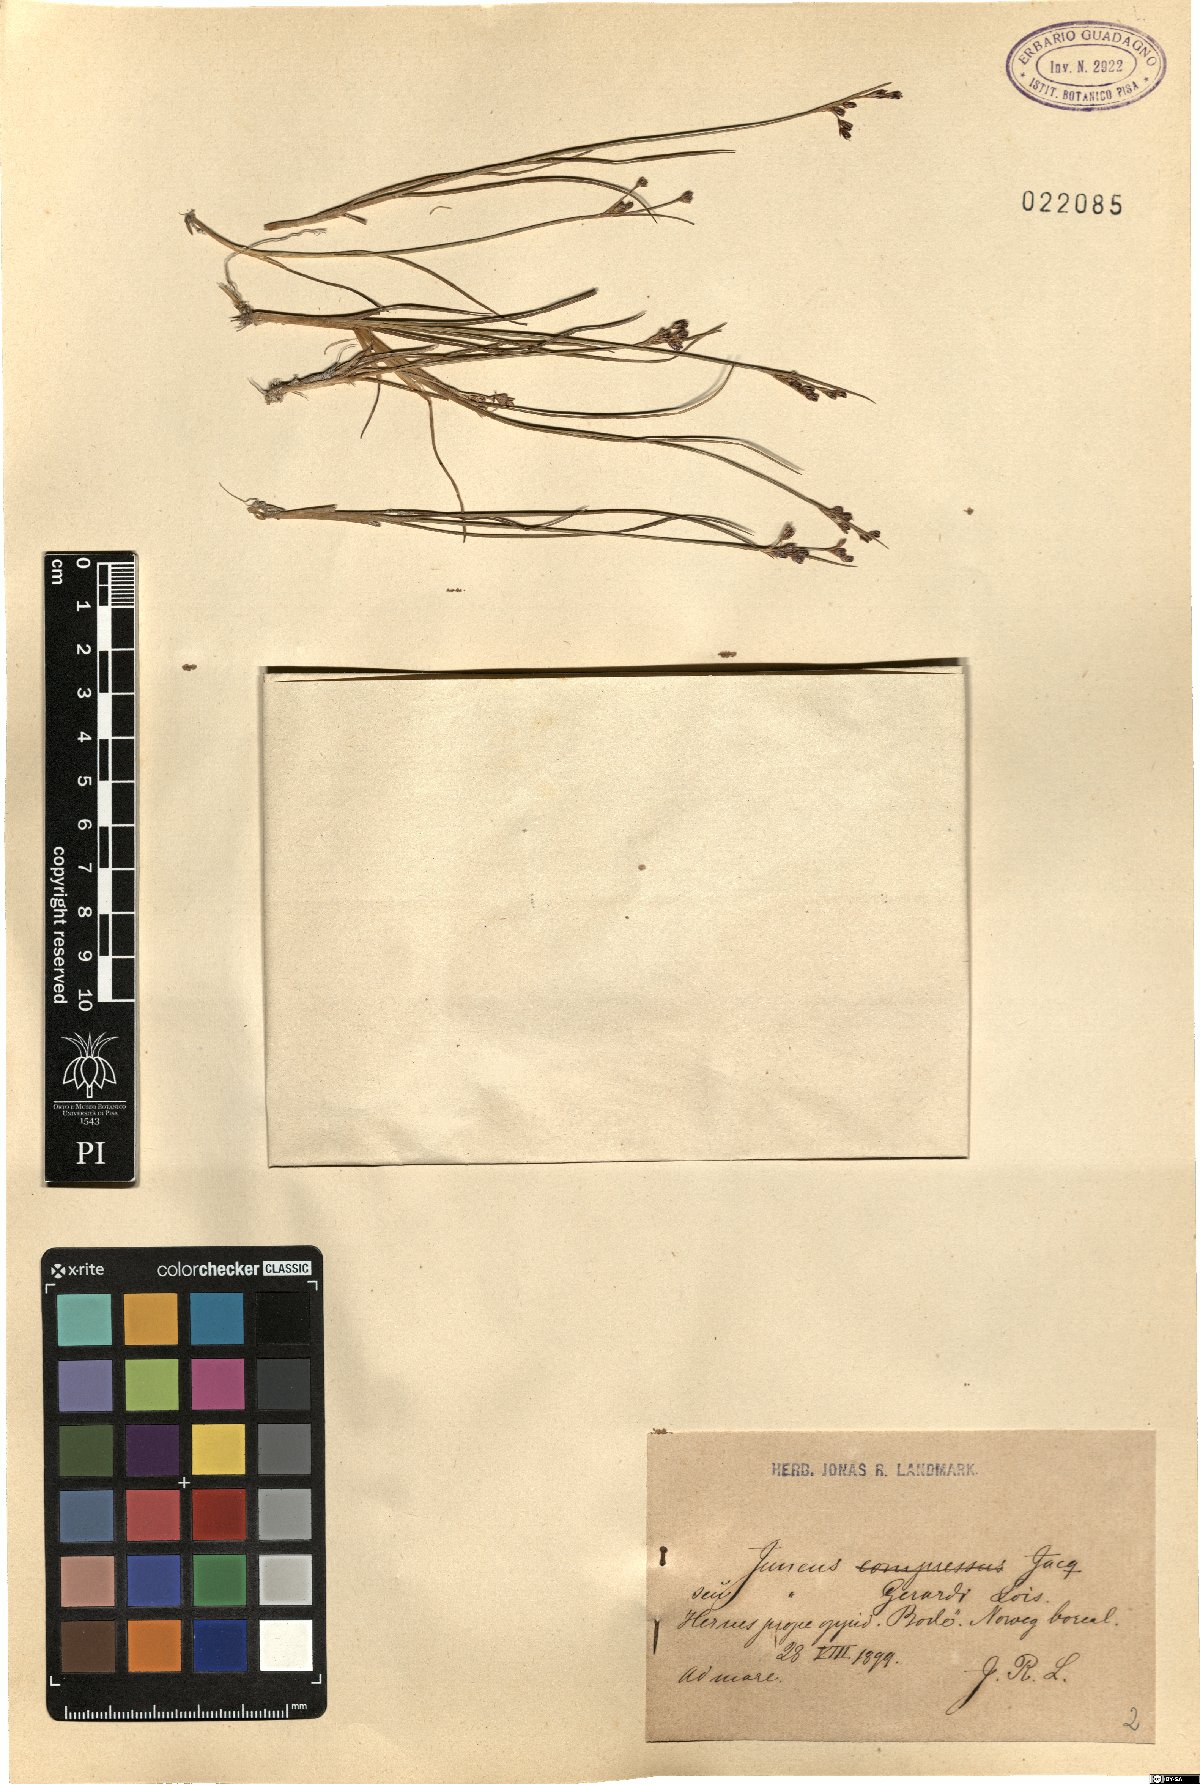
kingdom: Plantae
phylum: Tracheophyta
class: Liliopsida
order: Poales
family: Juncaceae
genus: Juncus
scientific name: Juncus gerardi
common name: Saltmarsh rush
